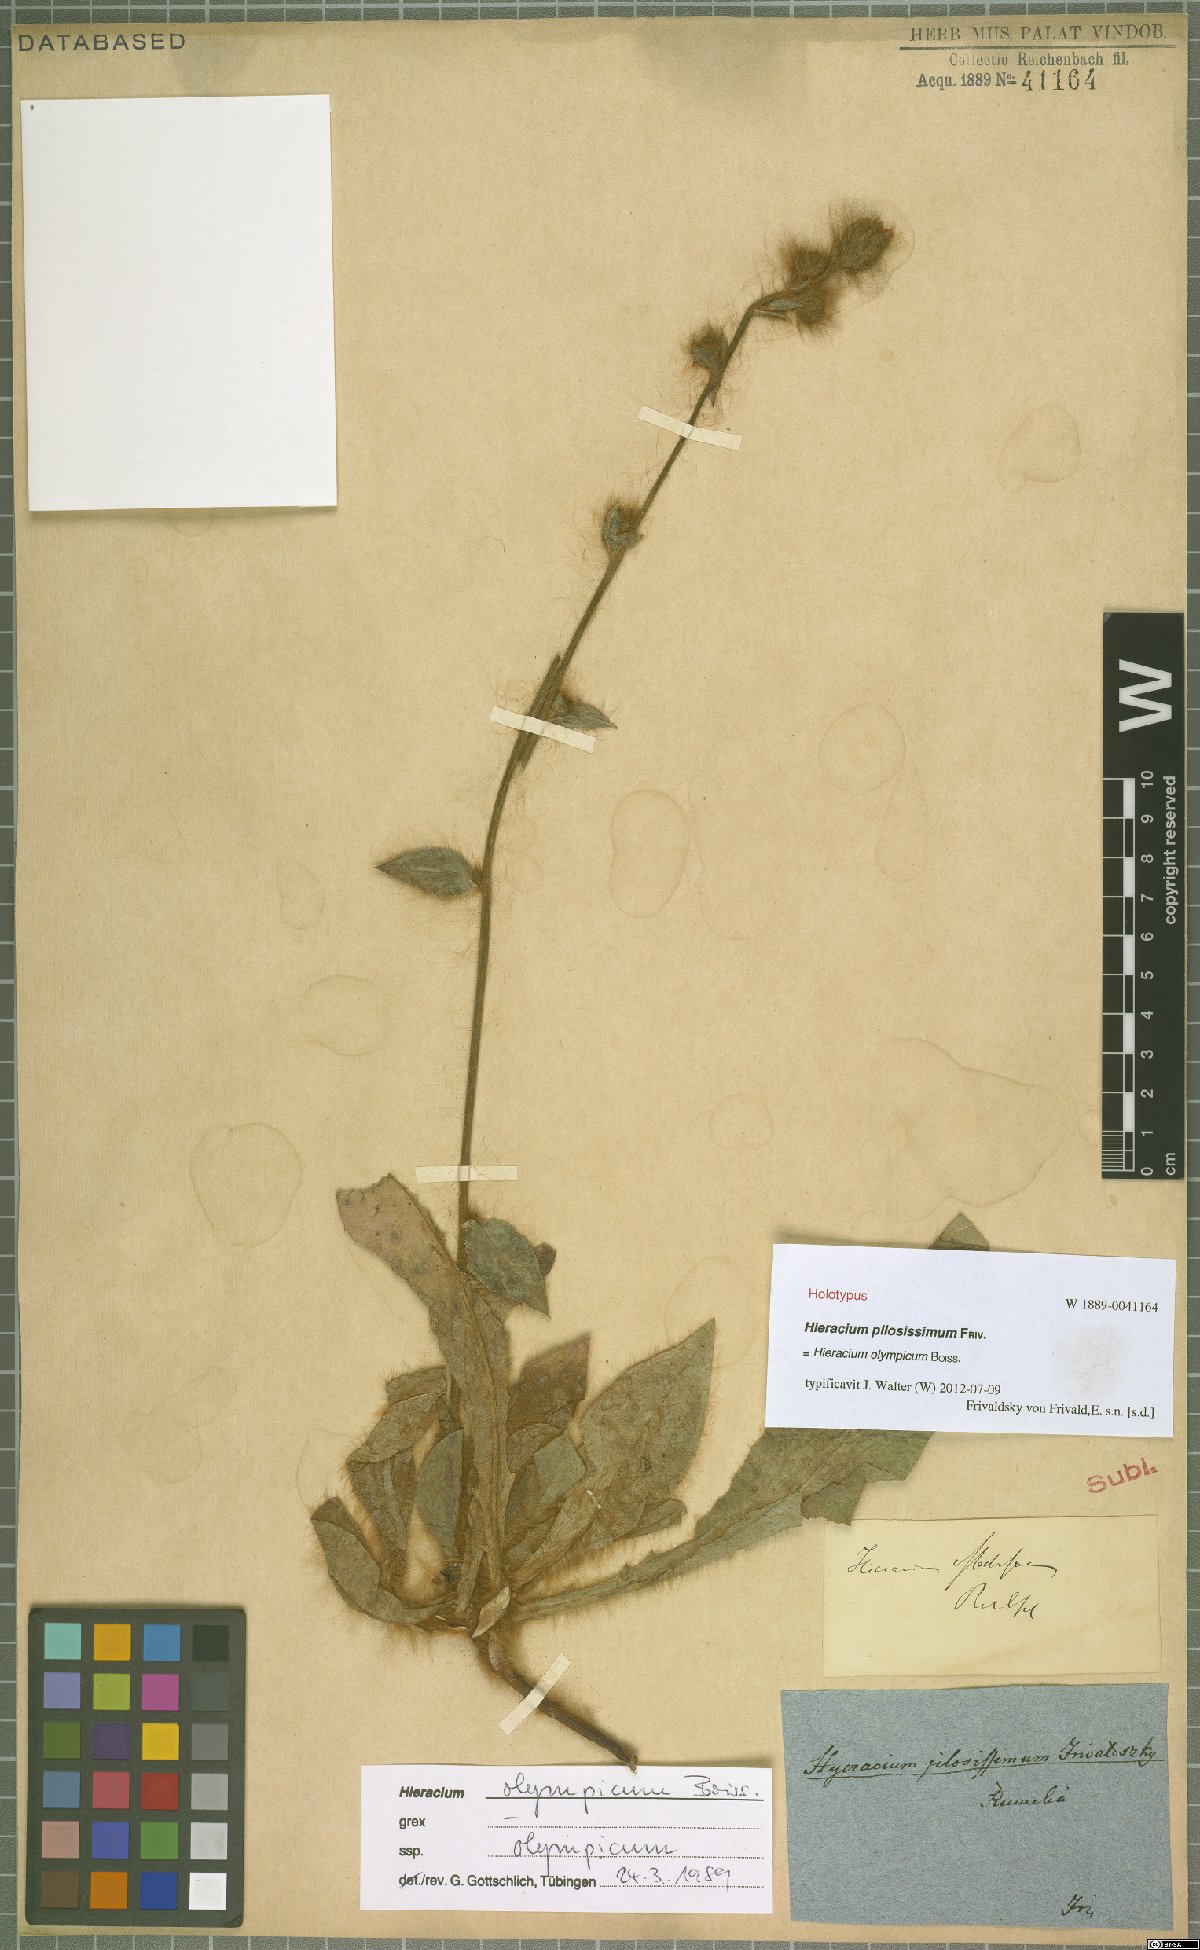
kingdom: Plantae
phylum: Tracheophyta
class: Magnoliopsida
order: Asterales
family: Asteraceae
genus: Hieracium
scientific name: Hieracium olympicum
